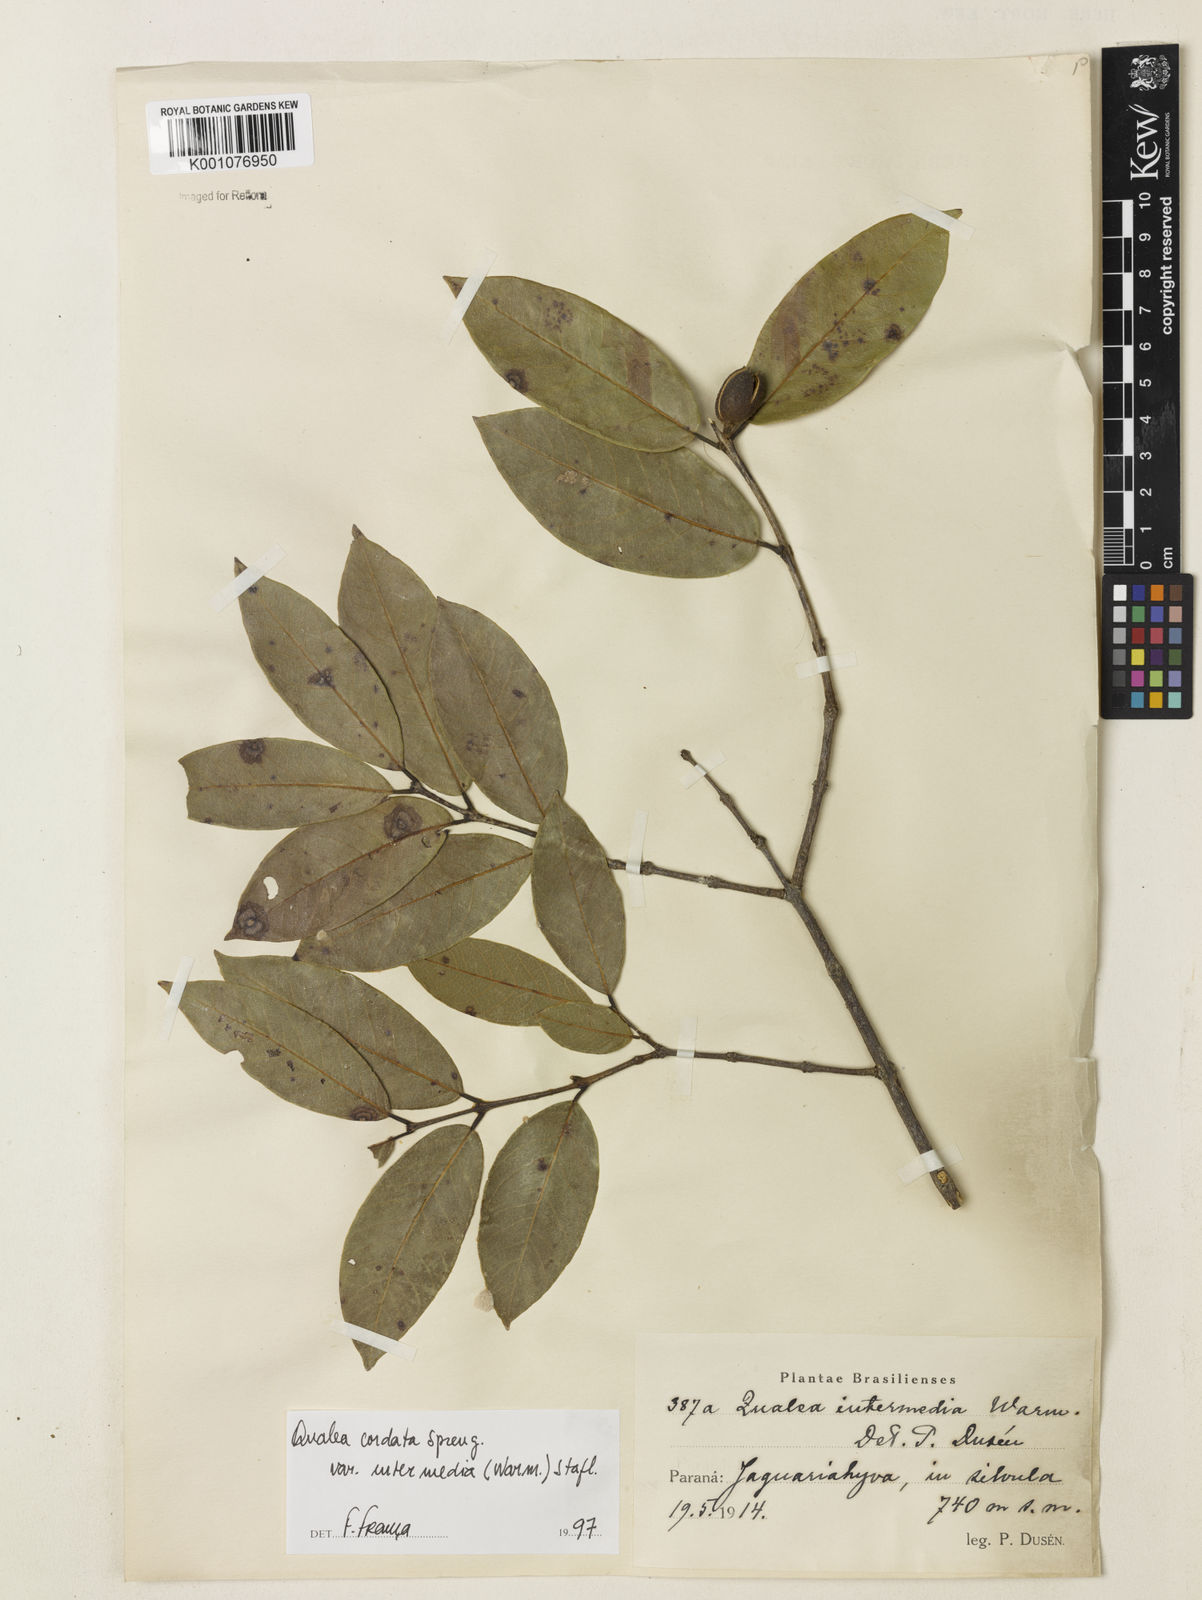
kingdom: Plantae
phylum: Tracheophyta
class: Magnoliopsida
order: Myrtales
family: Vochysiaceae
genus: Qualea
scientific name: Qualea cordata
